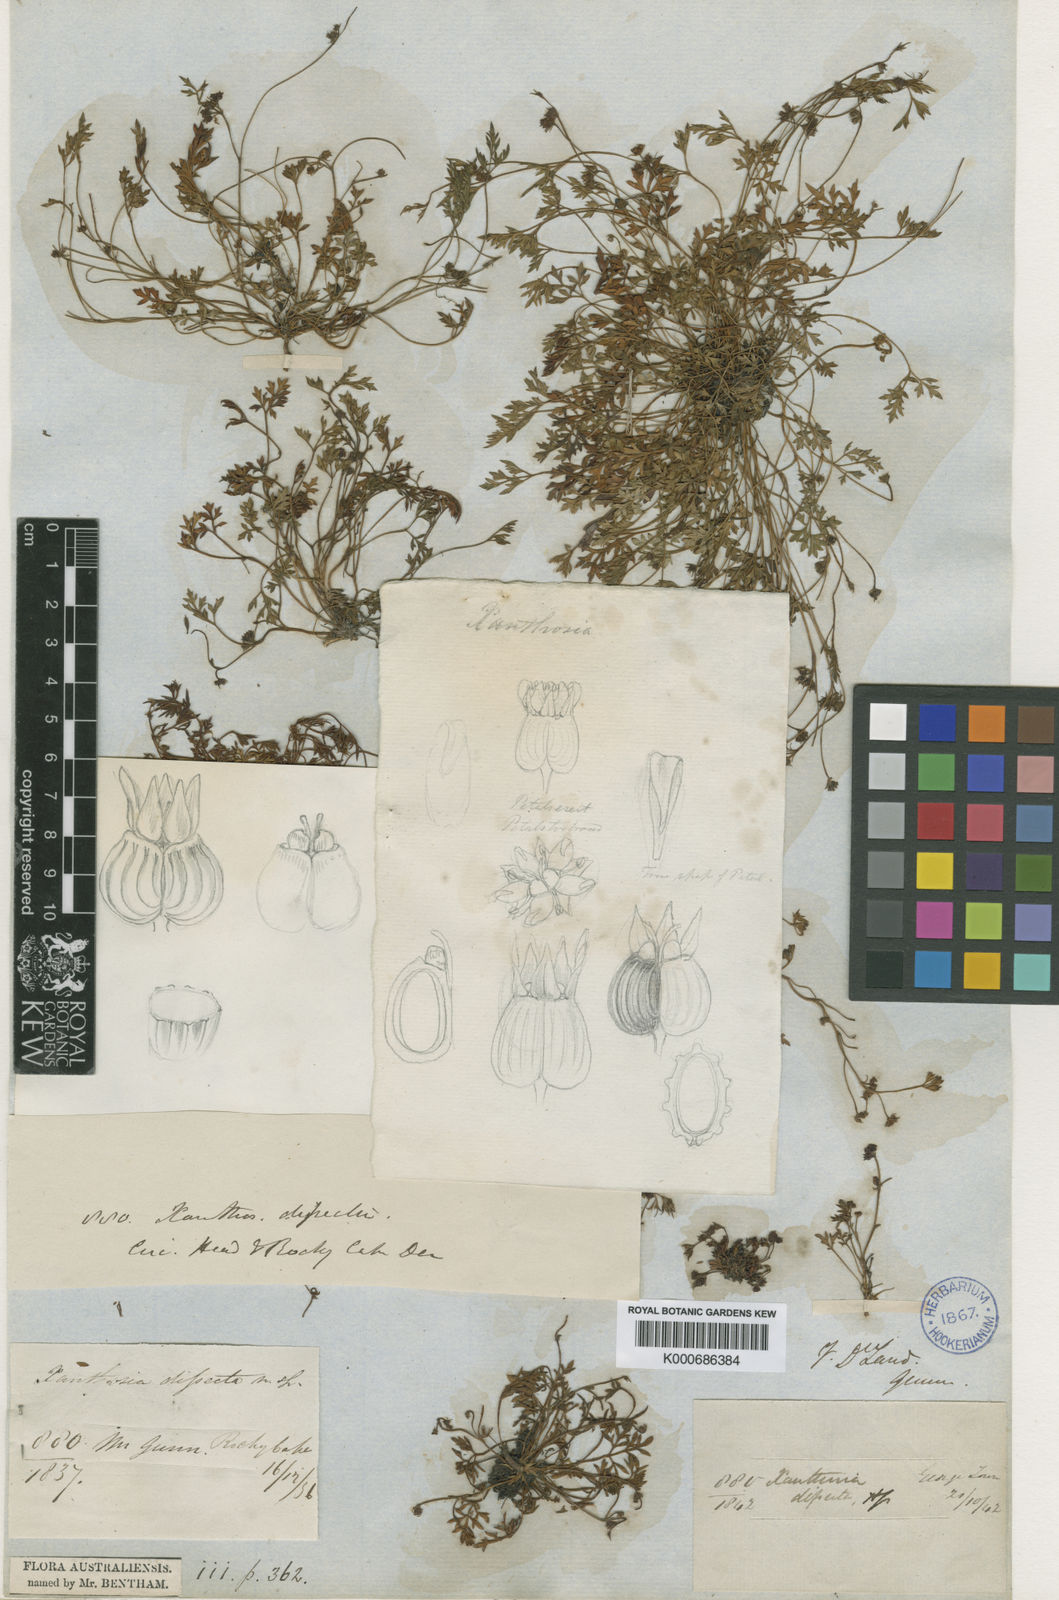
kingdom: Plantae
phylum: Tracheophyta
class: Magnoliopsida
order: Apiales
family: Apiaceae
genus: Xanthosia
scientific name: Xanthosia dissecta
